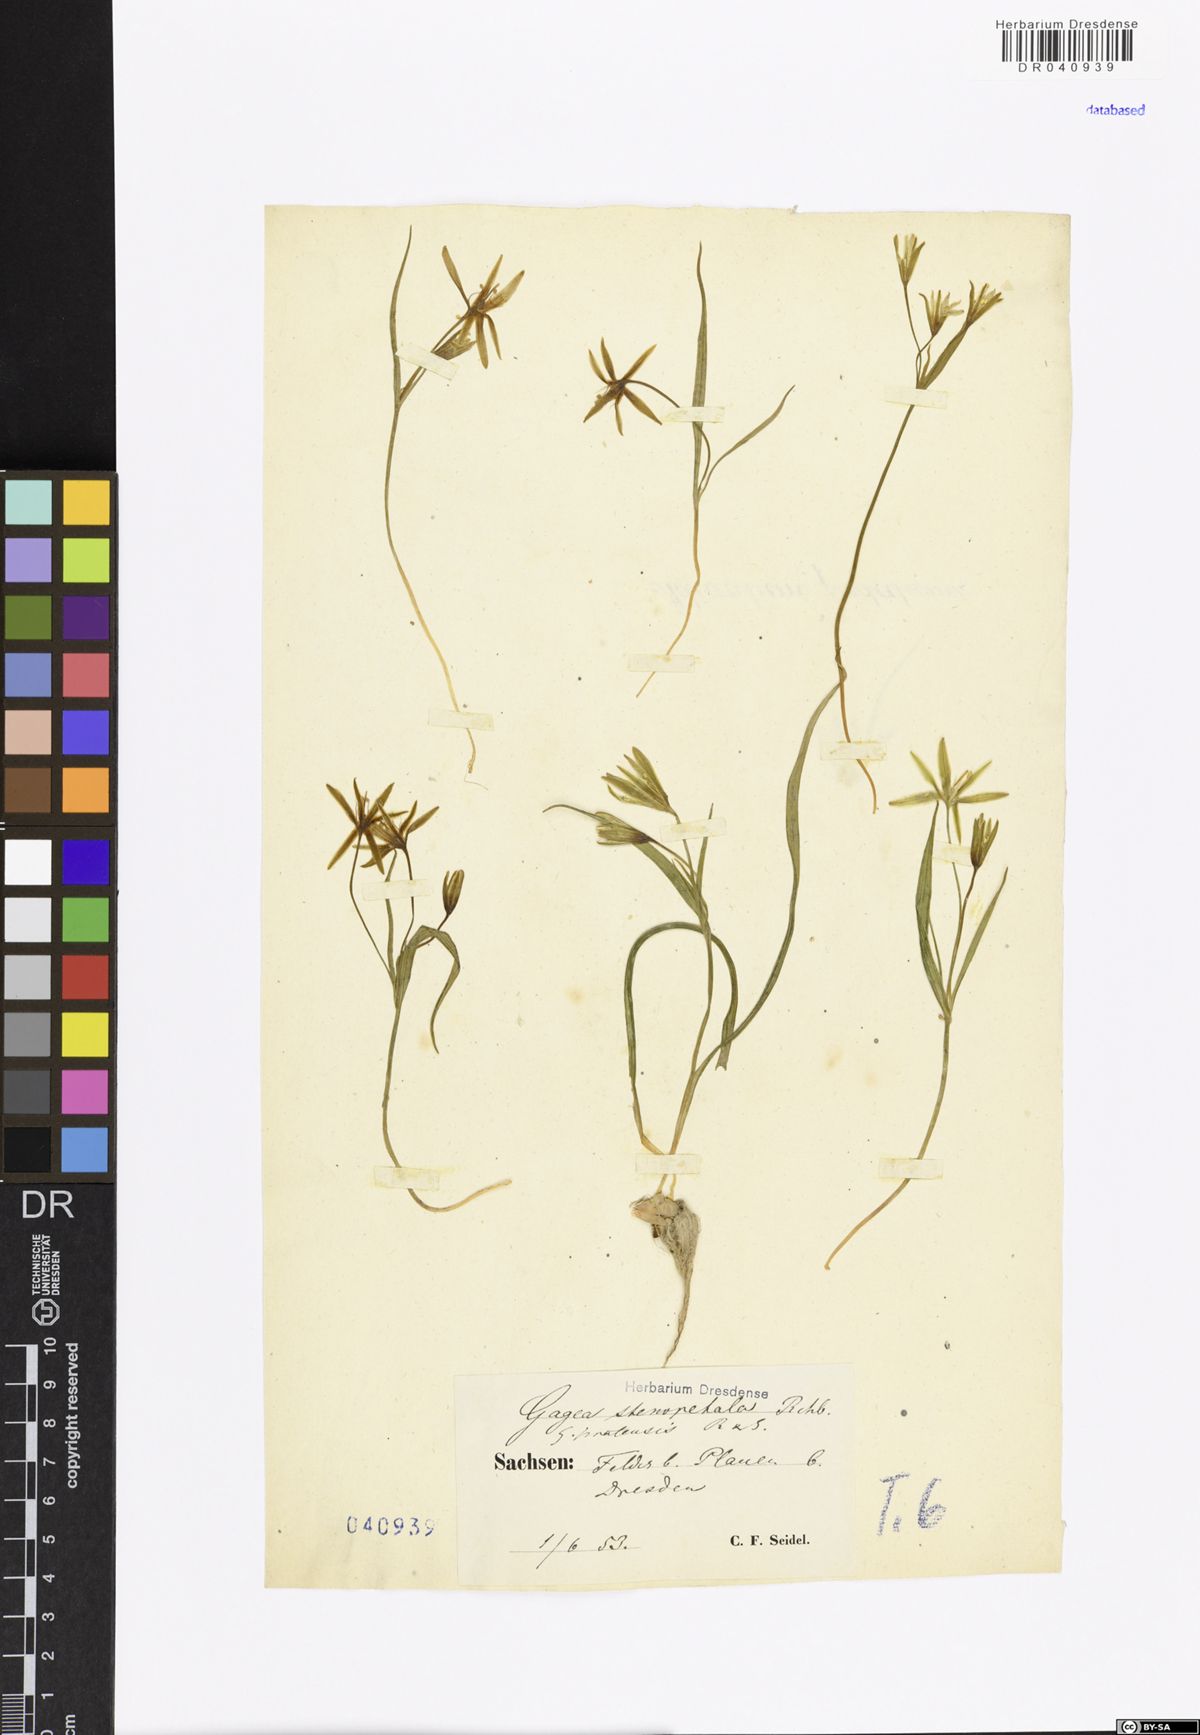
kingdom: Plantae
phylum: Tracheophyta
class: Liliopsida
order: Liliales
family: Liliaceae
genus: Gagea
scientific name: Gagea pratensis
